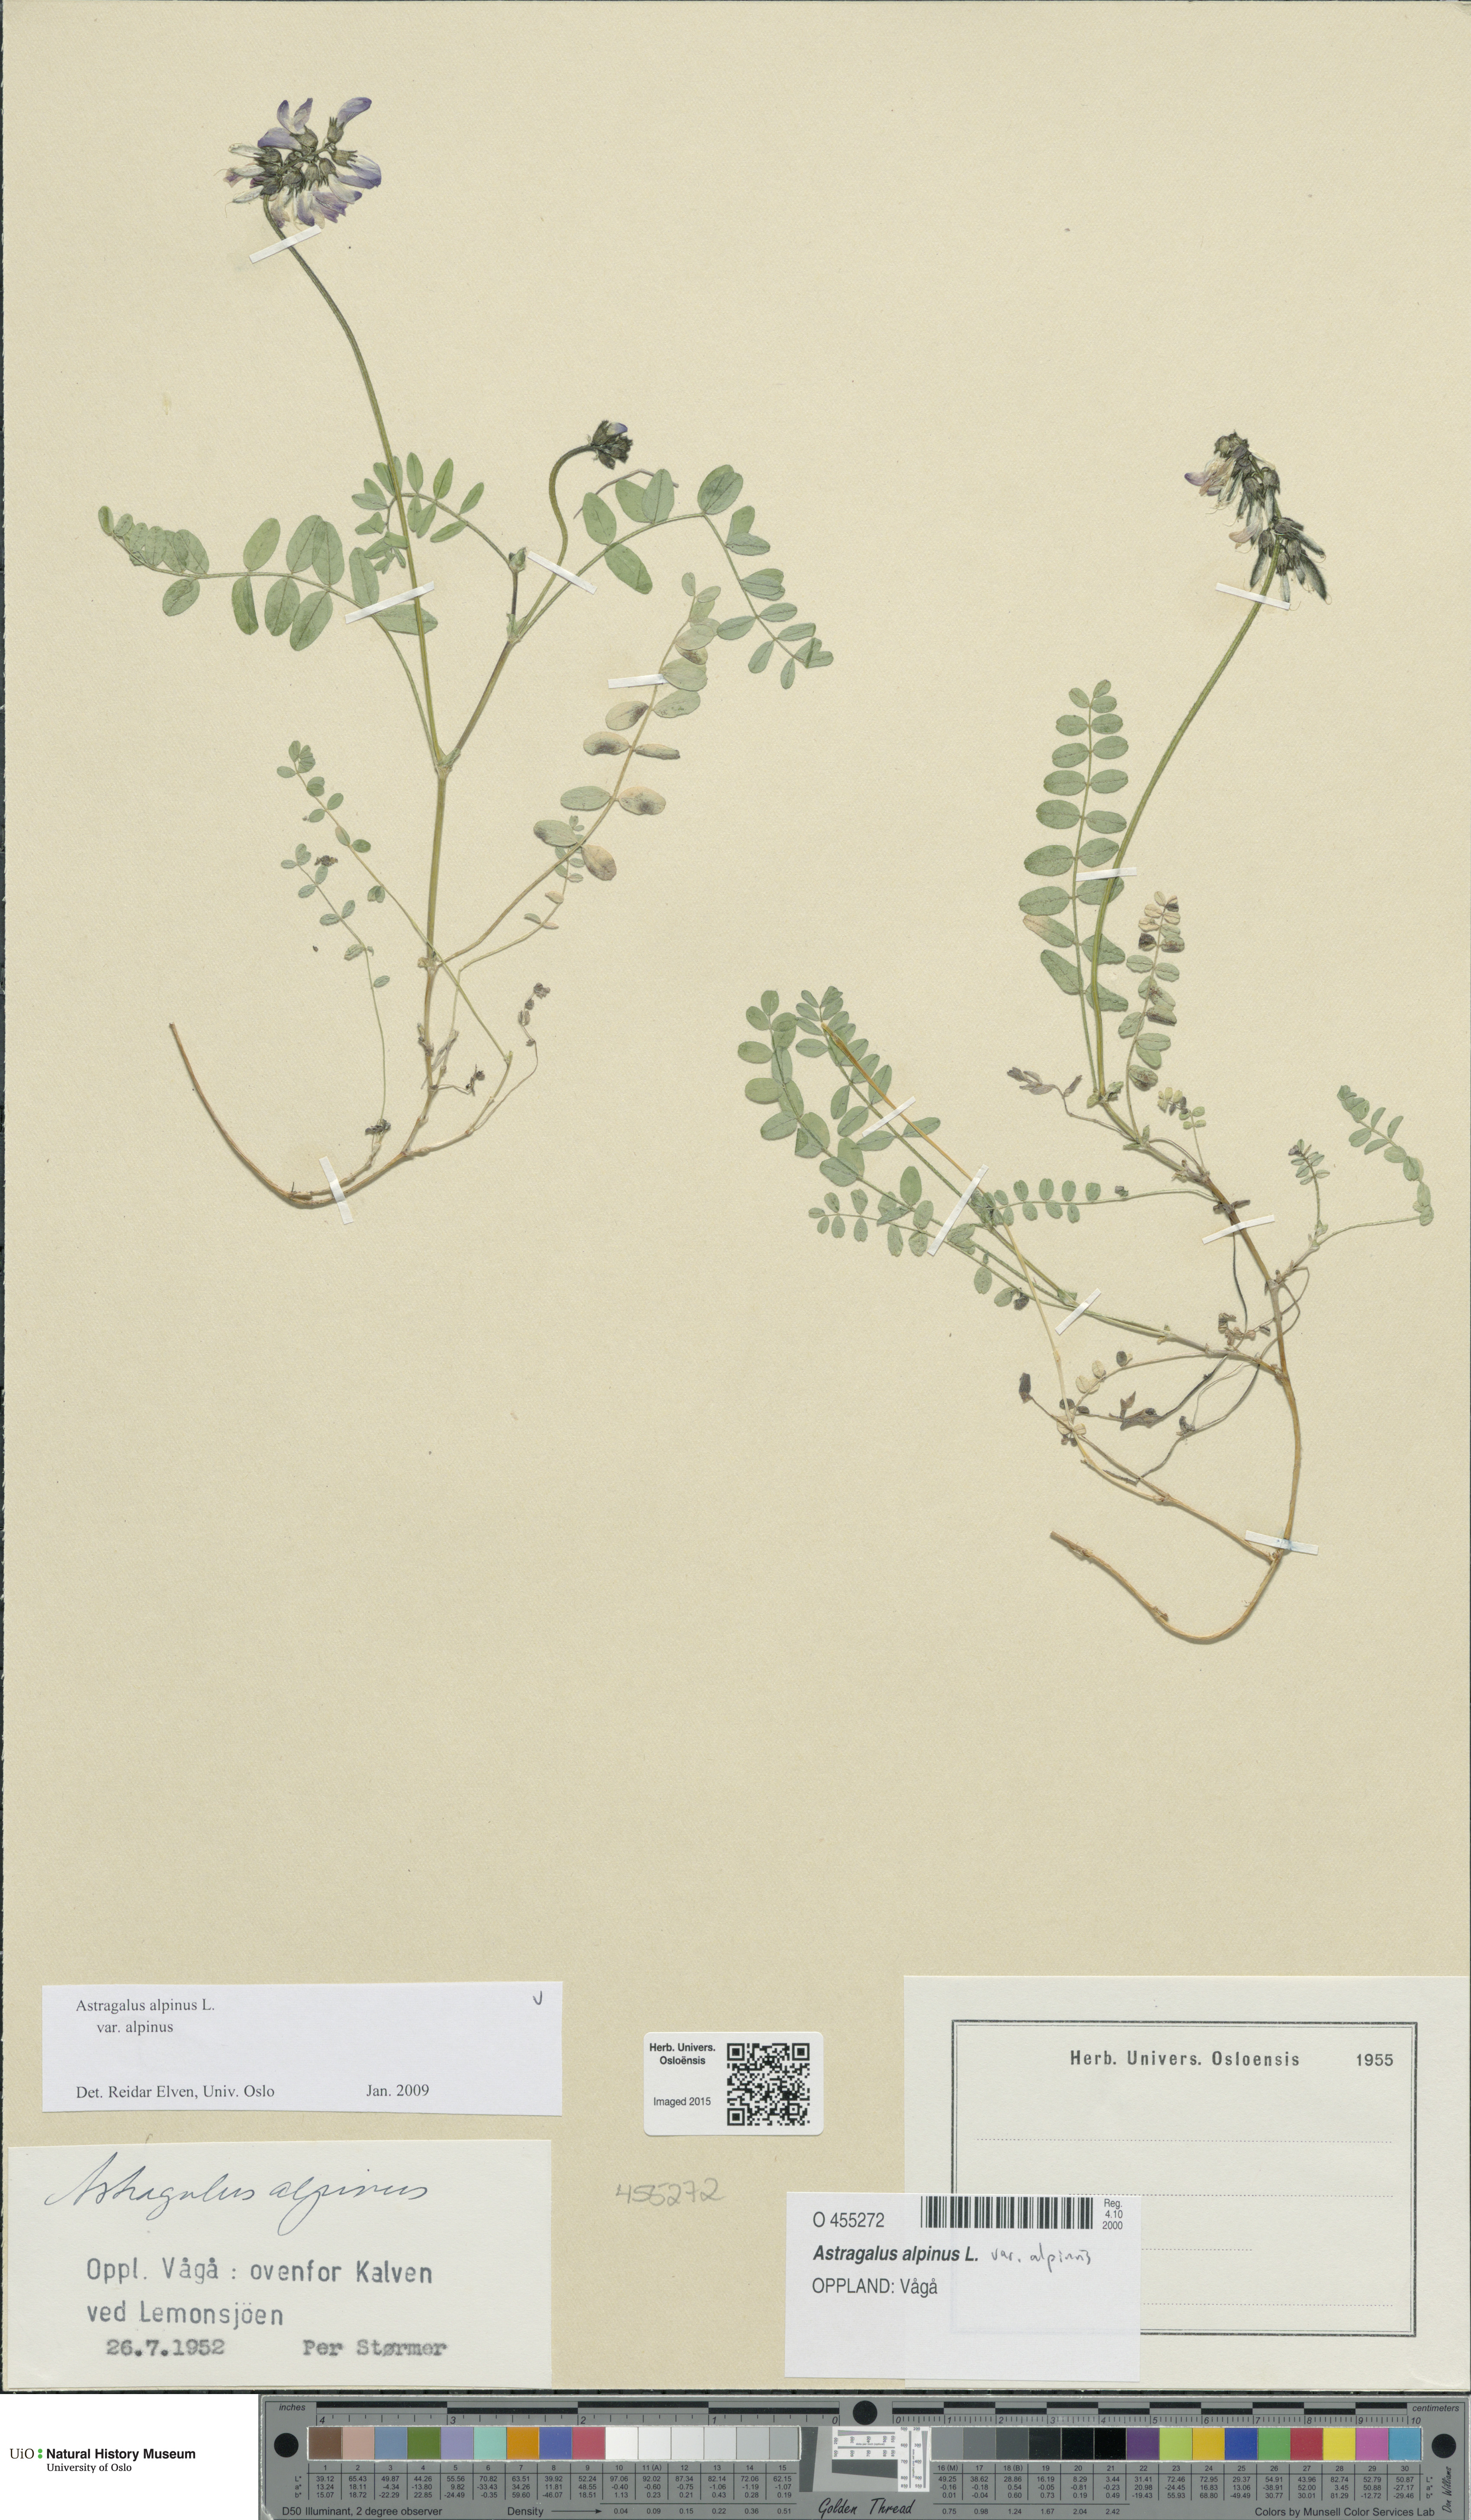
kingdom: Plantae
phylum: Tracheophyta
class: Magnoliopsida
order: Fabales
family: Fabaceae
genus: Astragalus
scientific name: Astragalus alpinus
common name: Alpine milk-vetch
